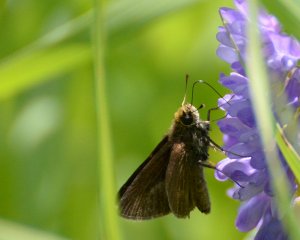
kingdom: Animalia
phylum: Arthropoda
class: Insecta
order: Lepidoptera
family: Hesperiidae
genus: Euphyes
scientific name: Euphyes vestris
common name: Dun Skipper
